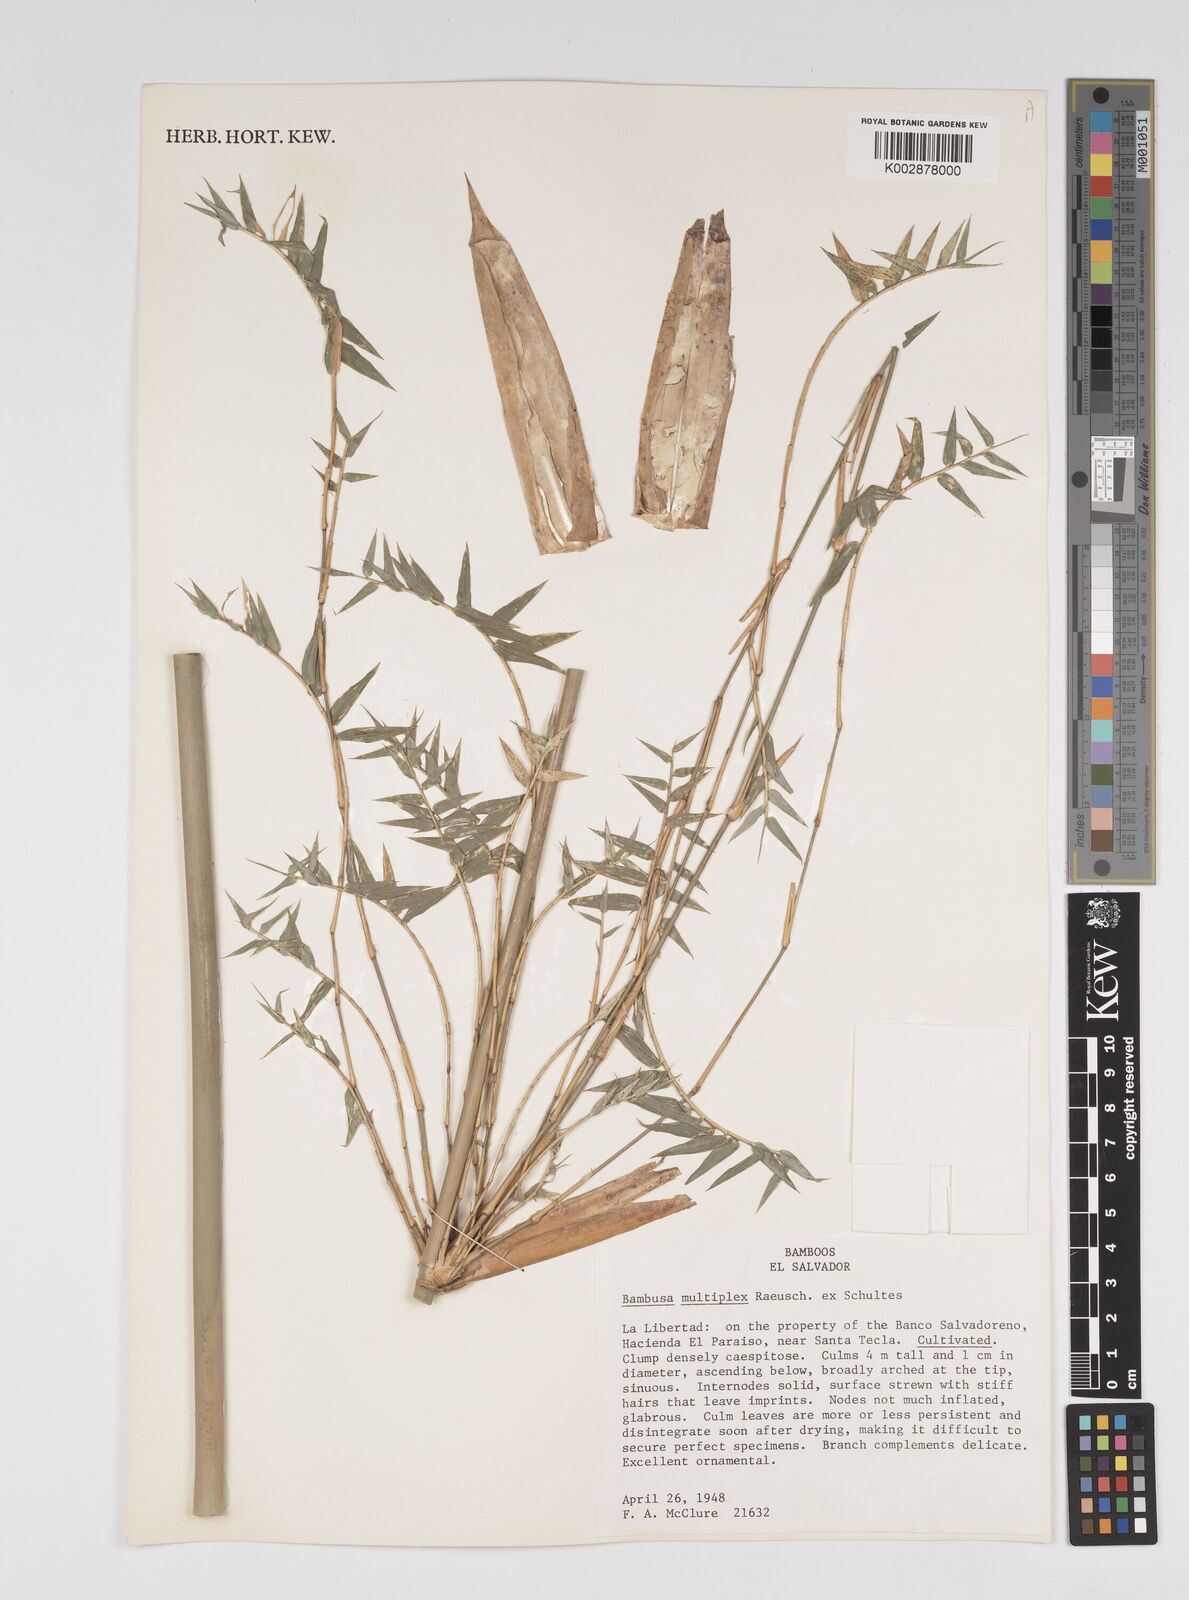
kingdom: Plantae
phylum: Tracheophyta
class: Liliopsida
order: Poales
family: Poaceae
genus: Bambusa
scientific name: Bambusa multiplex
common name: Hedge bamboo
